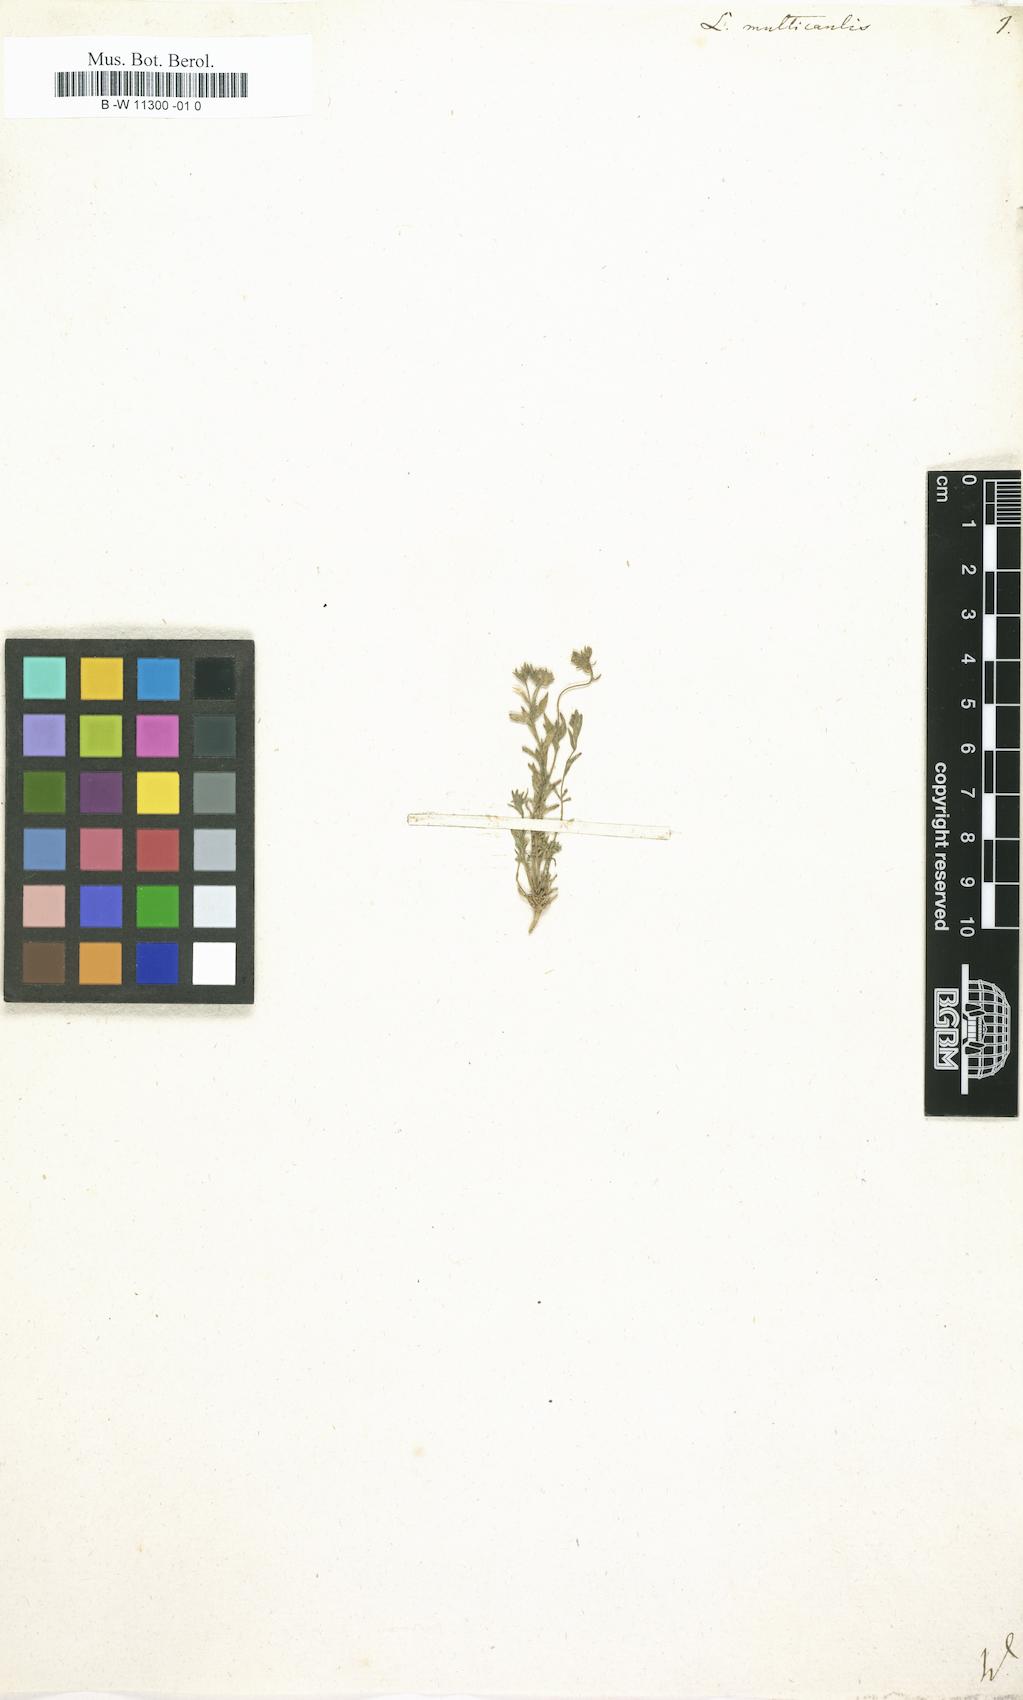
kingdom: Plantae
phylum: Tracheophyta
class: Magnoliopsida
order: Lamiales
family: Plantaginaceae
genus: Linaria
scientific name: Linaria multicaulis
